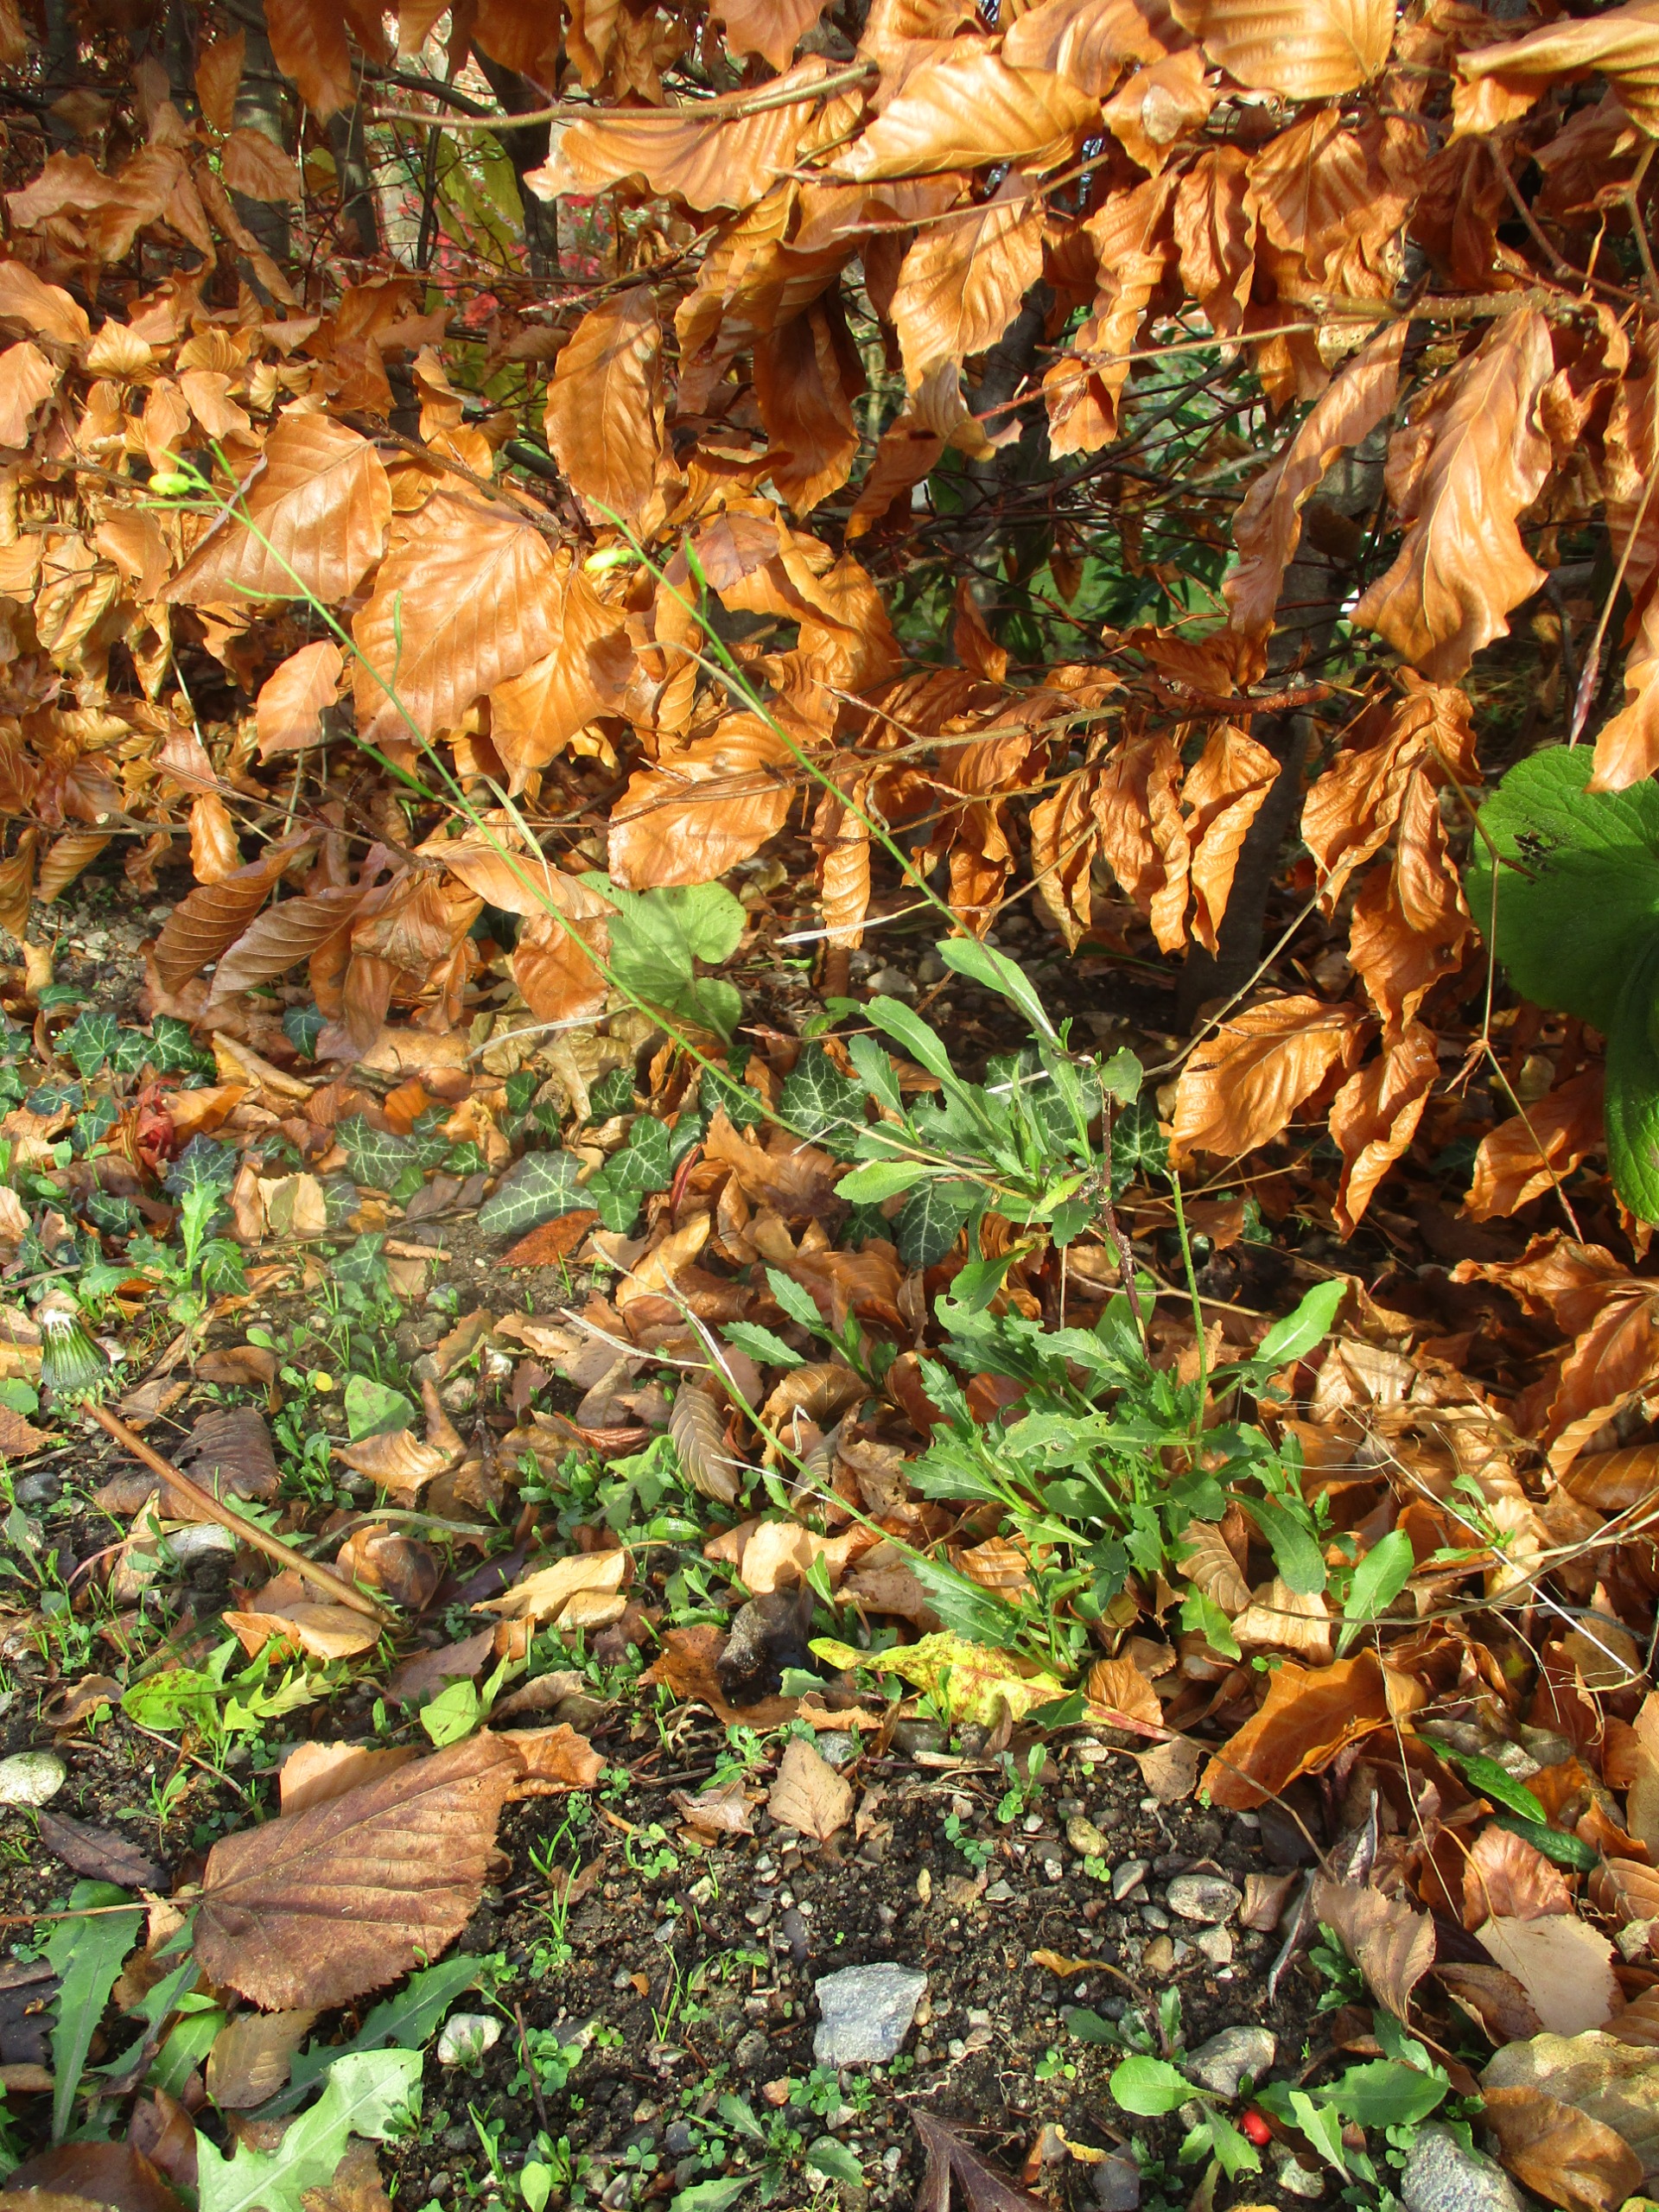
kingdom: Plantae
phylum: Tracheophyta
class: Magnoliopsida
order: Brassicales
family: Brassicaceae
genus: Diplotaxis
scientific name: Diplotaxis muralis
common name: Mursennep
